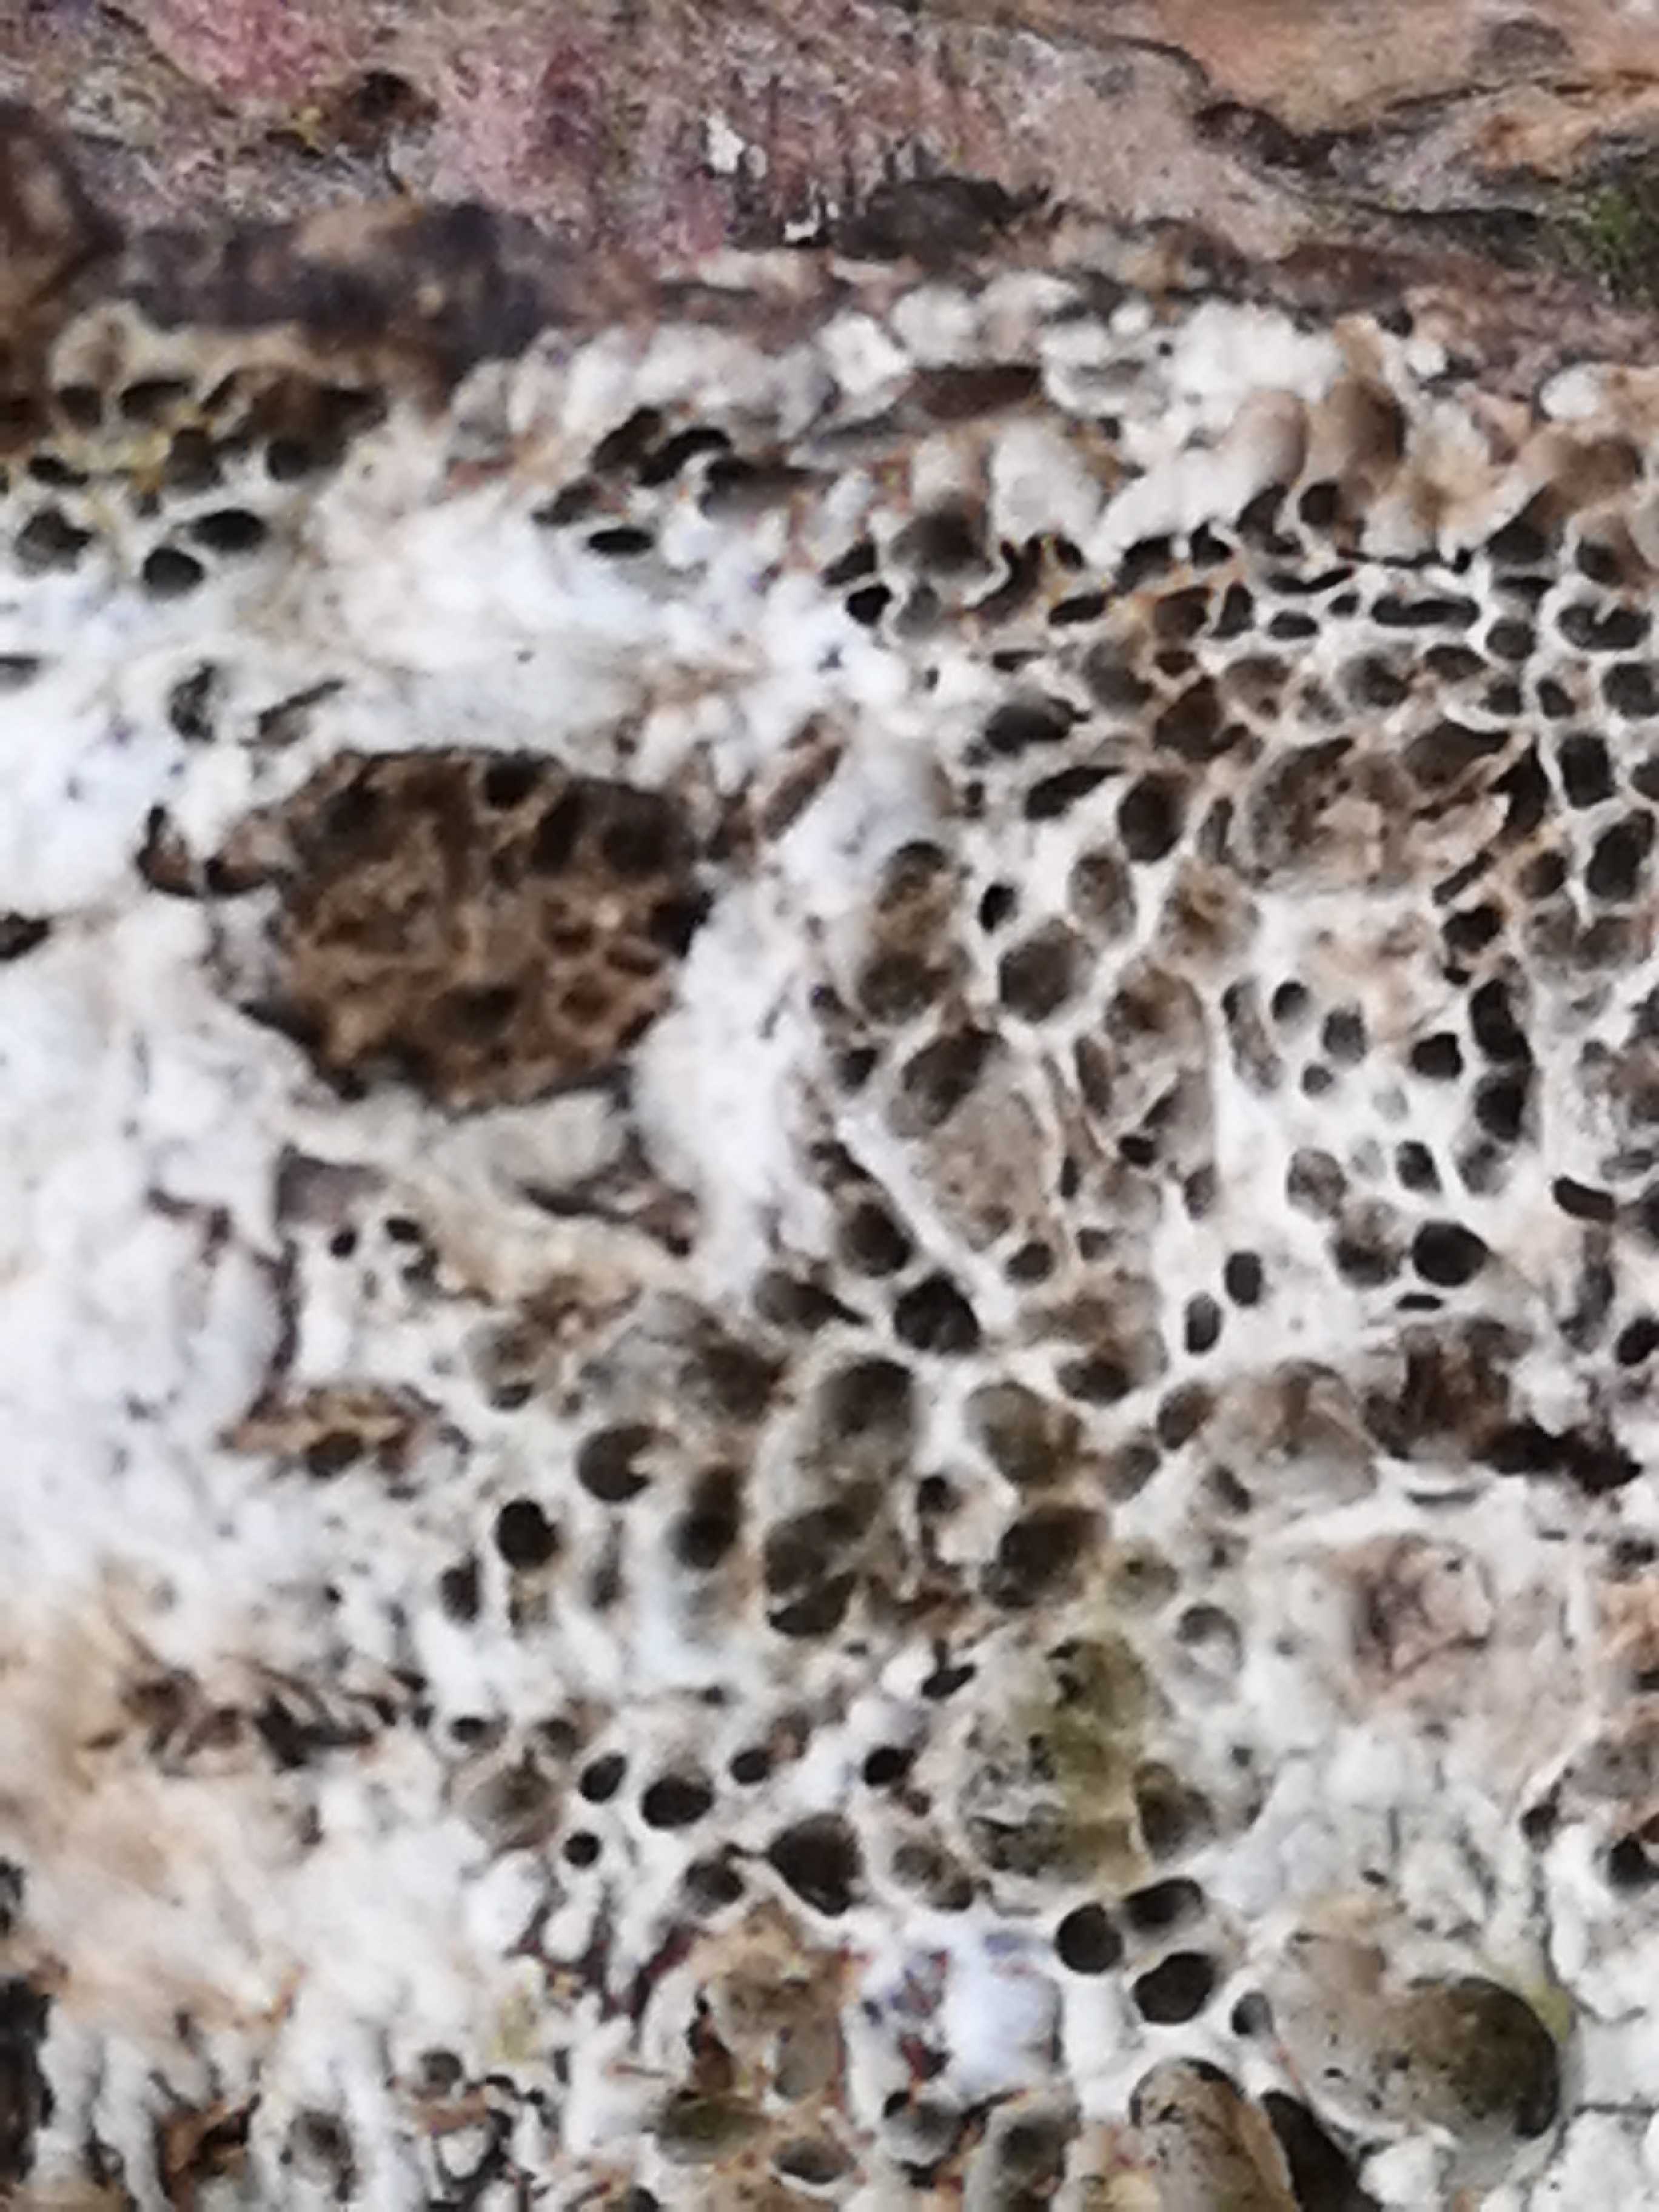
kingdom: Fungi
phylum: Basidiomycota
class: Agaricomycetes
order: Polyporales
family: Polyporaceae
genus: Podofomes
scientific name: Podofomes mollis
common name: blød begporesvamp
